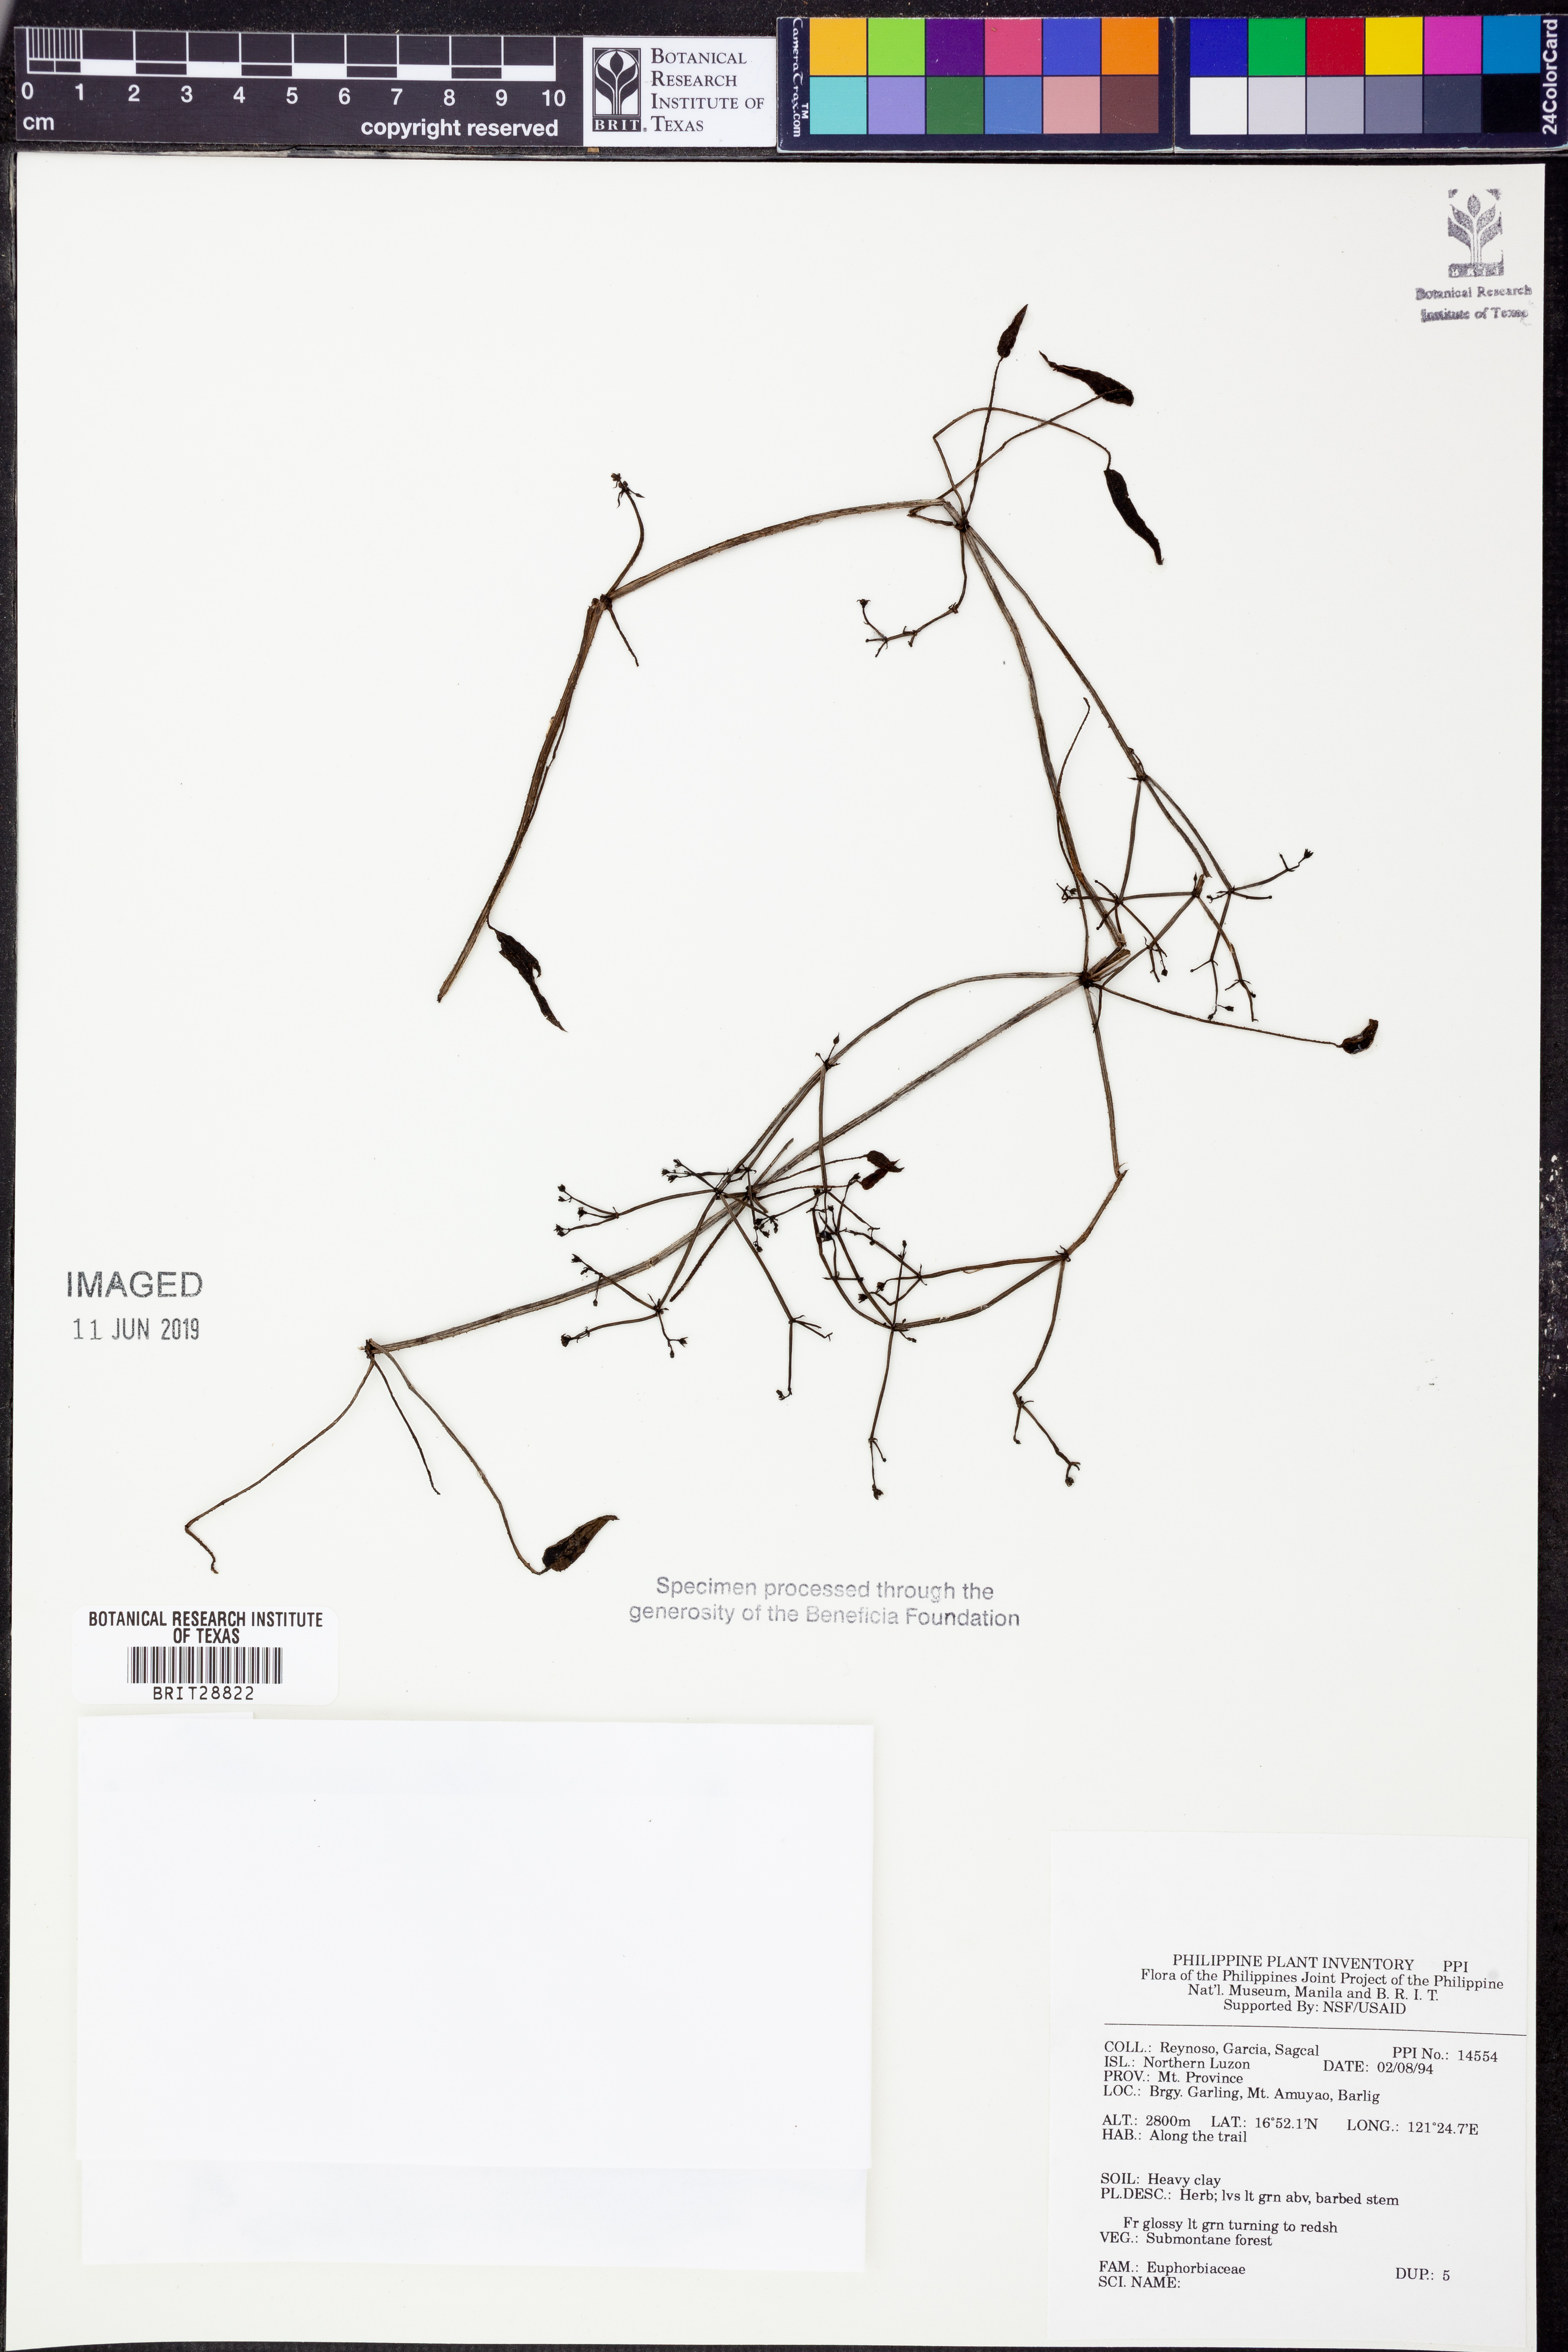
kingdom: Plantae
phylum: Tracheophyta
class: Magnoliopsida
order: Malpighiales
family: Euphorbiaceae
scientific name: Euphorbiaceae
